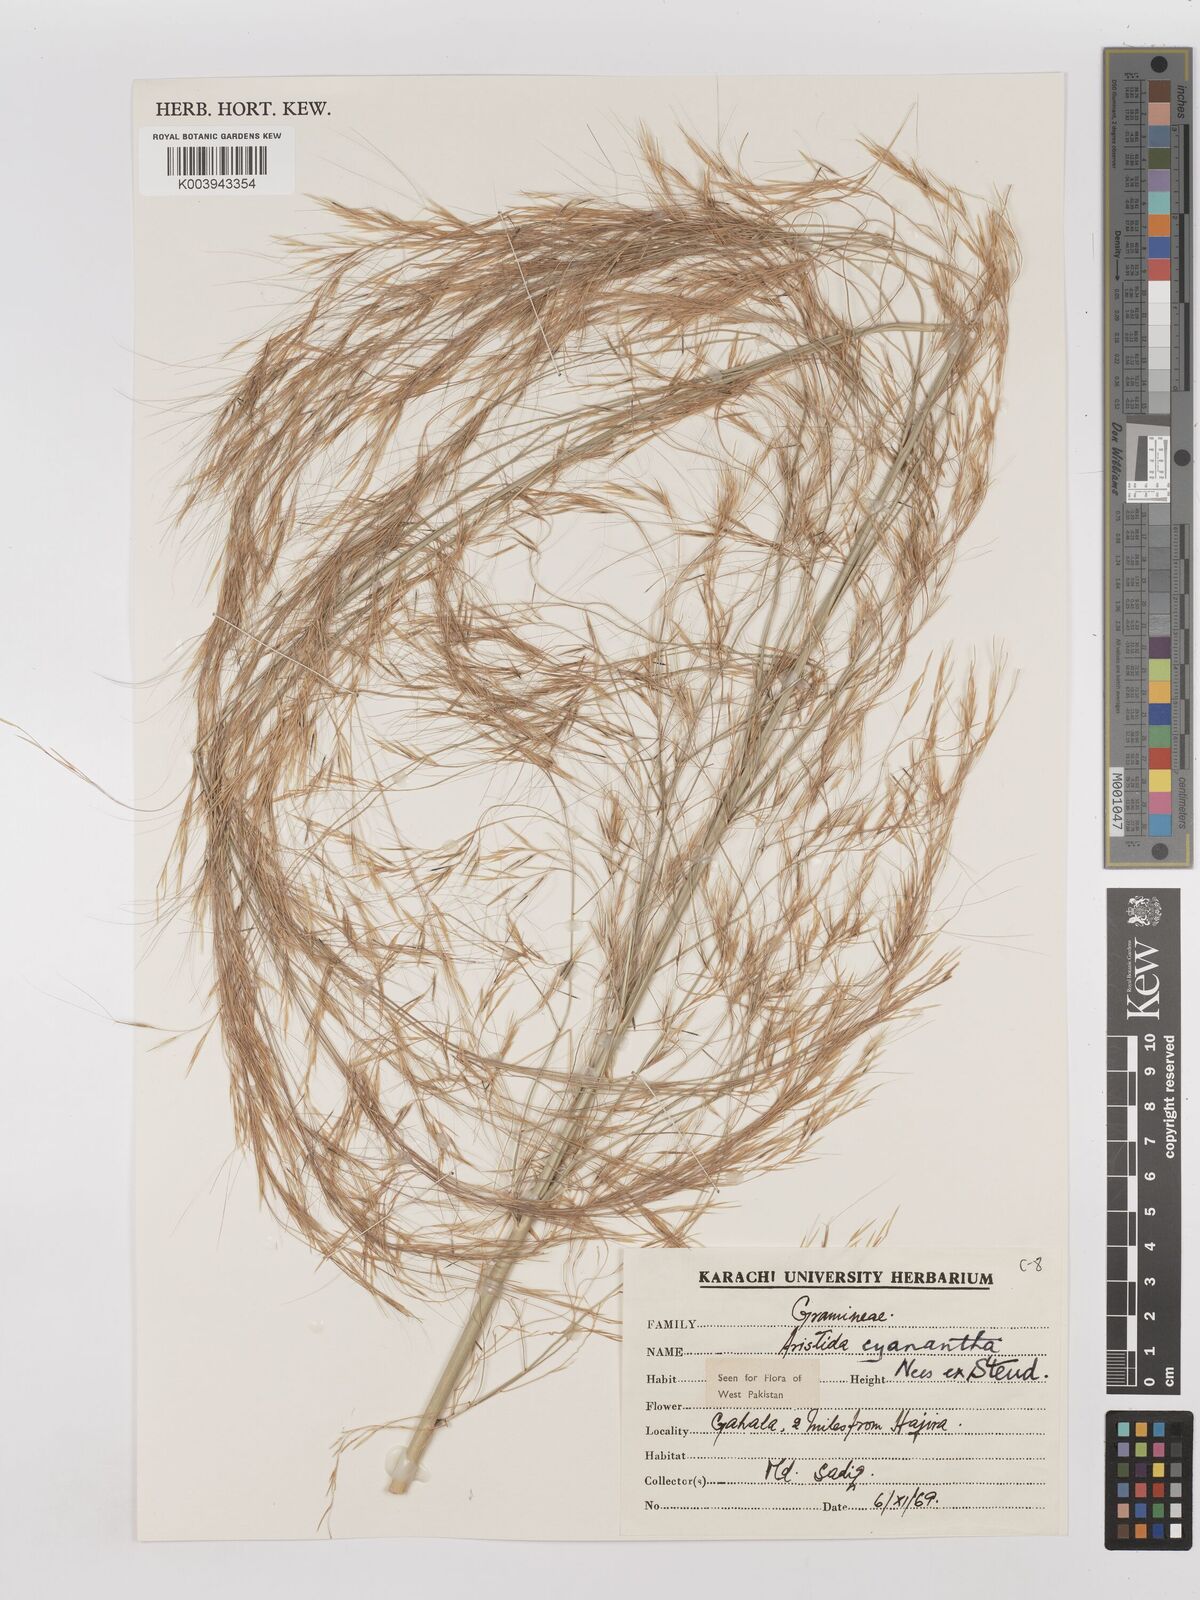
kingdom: Plantae
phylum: Tracheophyta
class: Liliopsida
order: Poales
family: Poaceae
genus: Aristida
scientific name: Aristida cyanantha
